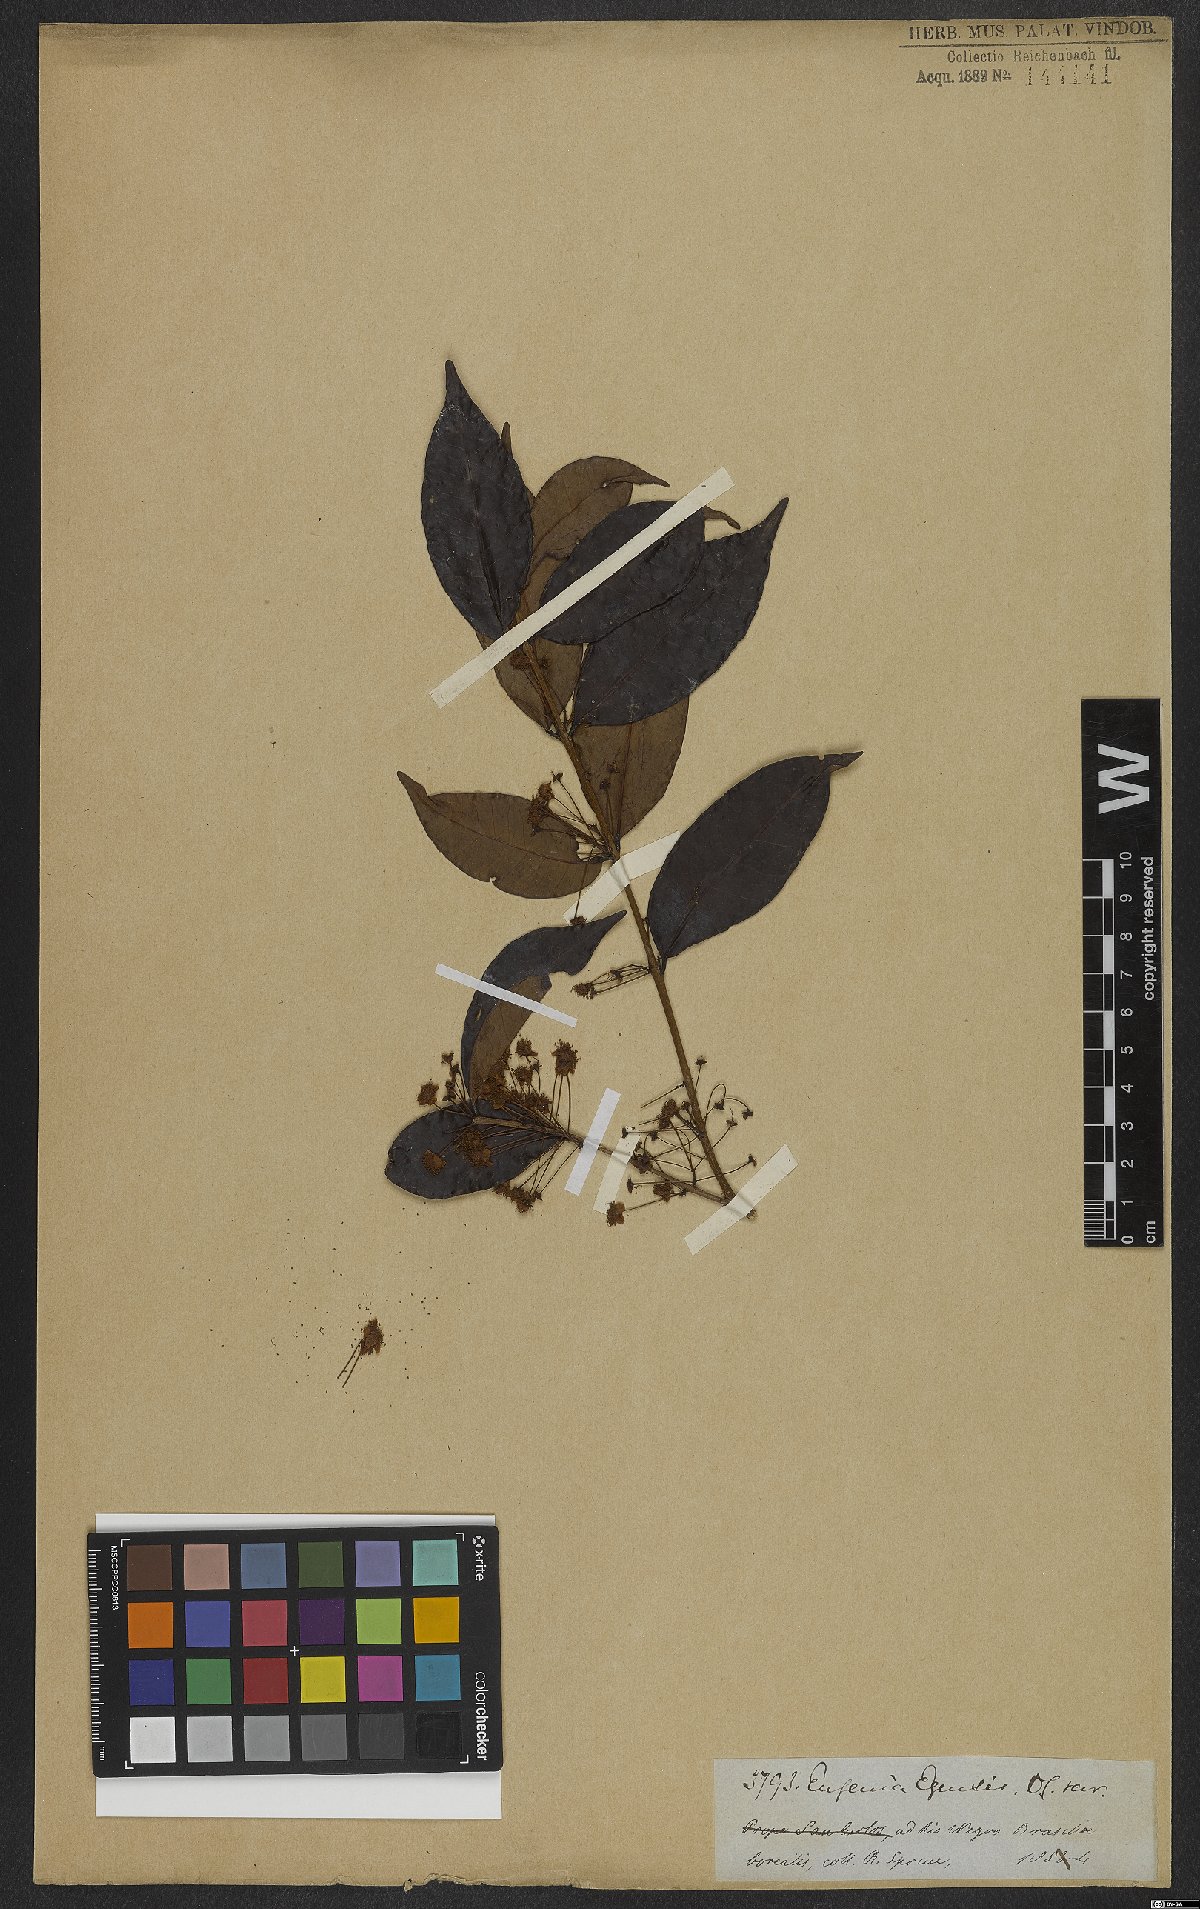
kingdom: Plantae
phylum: Tracheophyta
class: Magnoliopsida
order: Myrtales
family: Myrtaceae
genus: Eugenia
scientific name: Eugenia egensis
